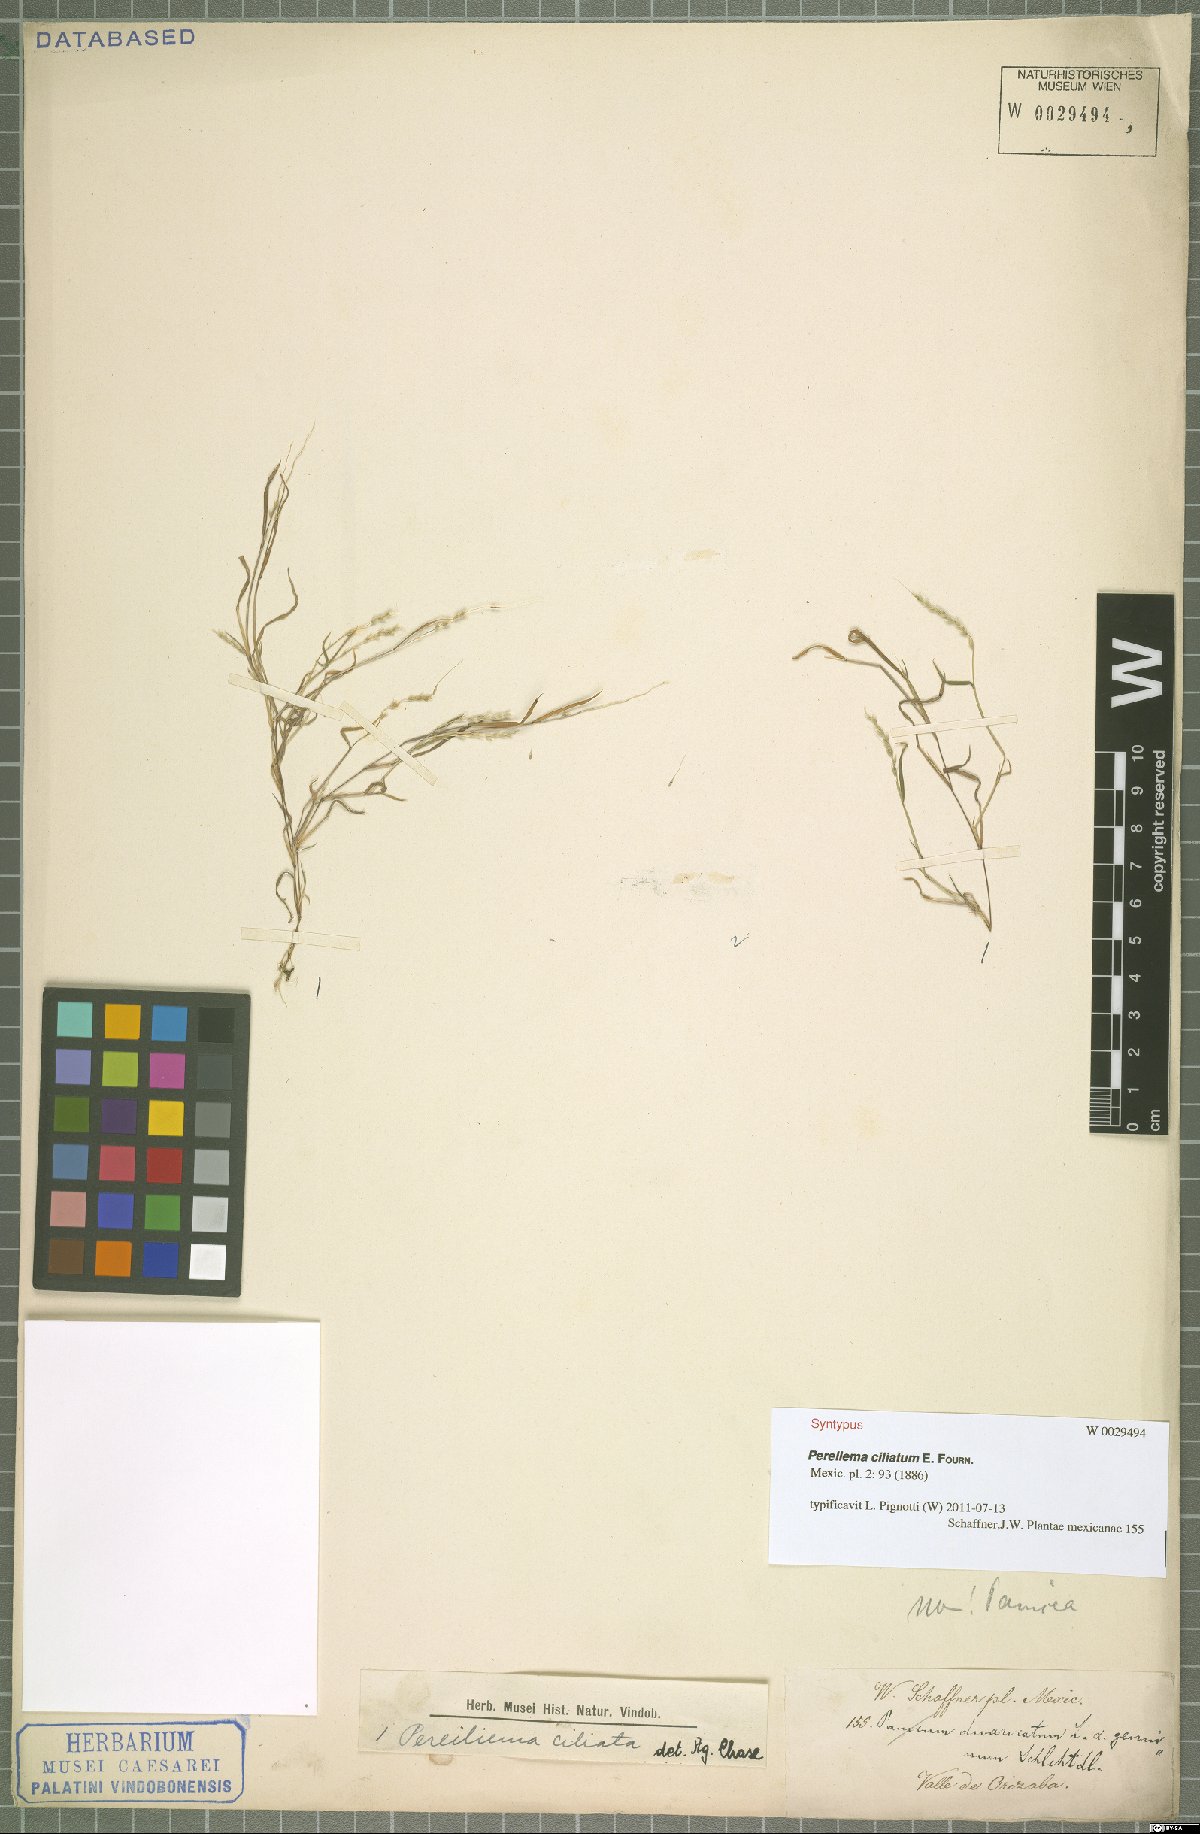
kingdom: Plantae
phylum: Tracheophyta
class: Liliopsida
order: Poales
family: Poaceae
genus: Muhlenbergia
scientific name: Muhlenbergia plumiseta
